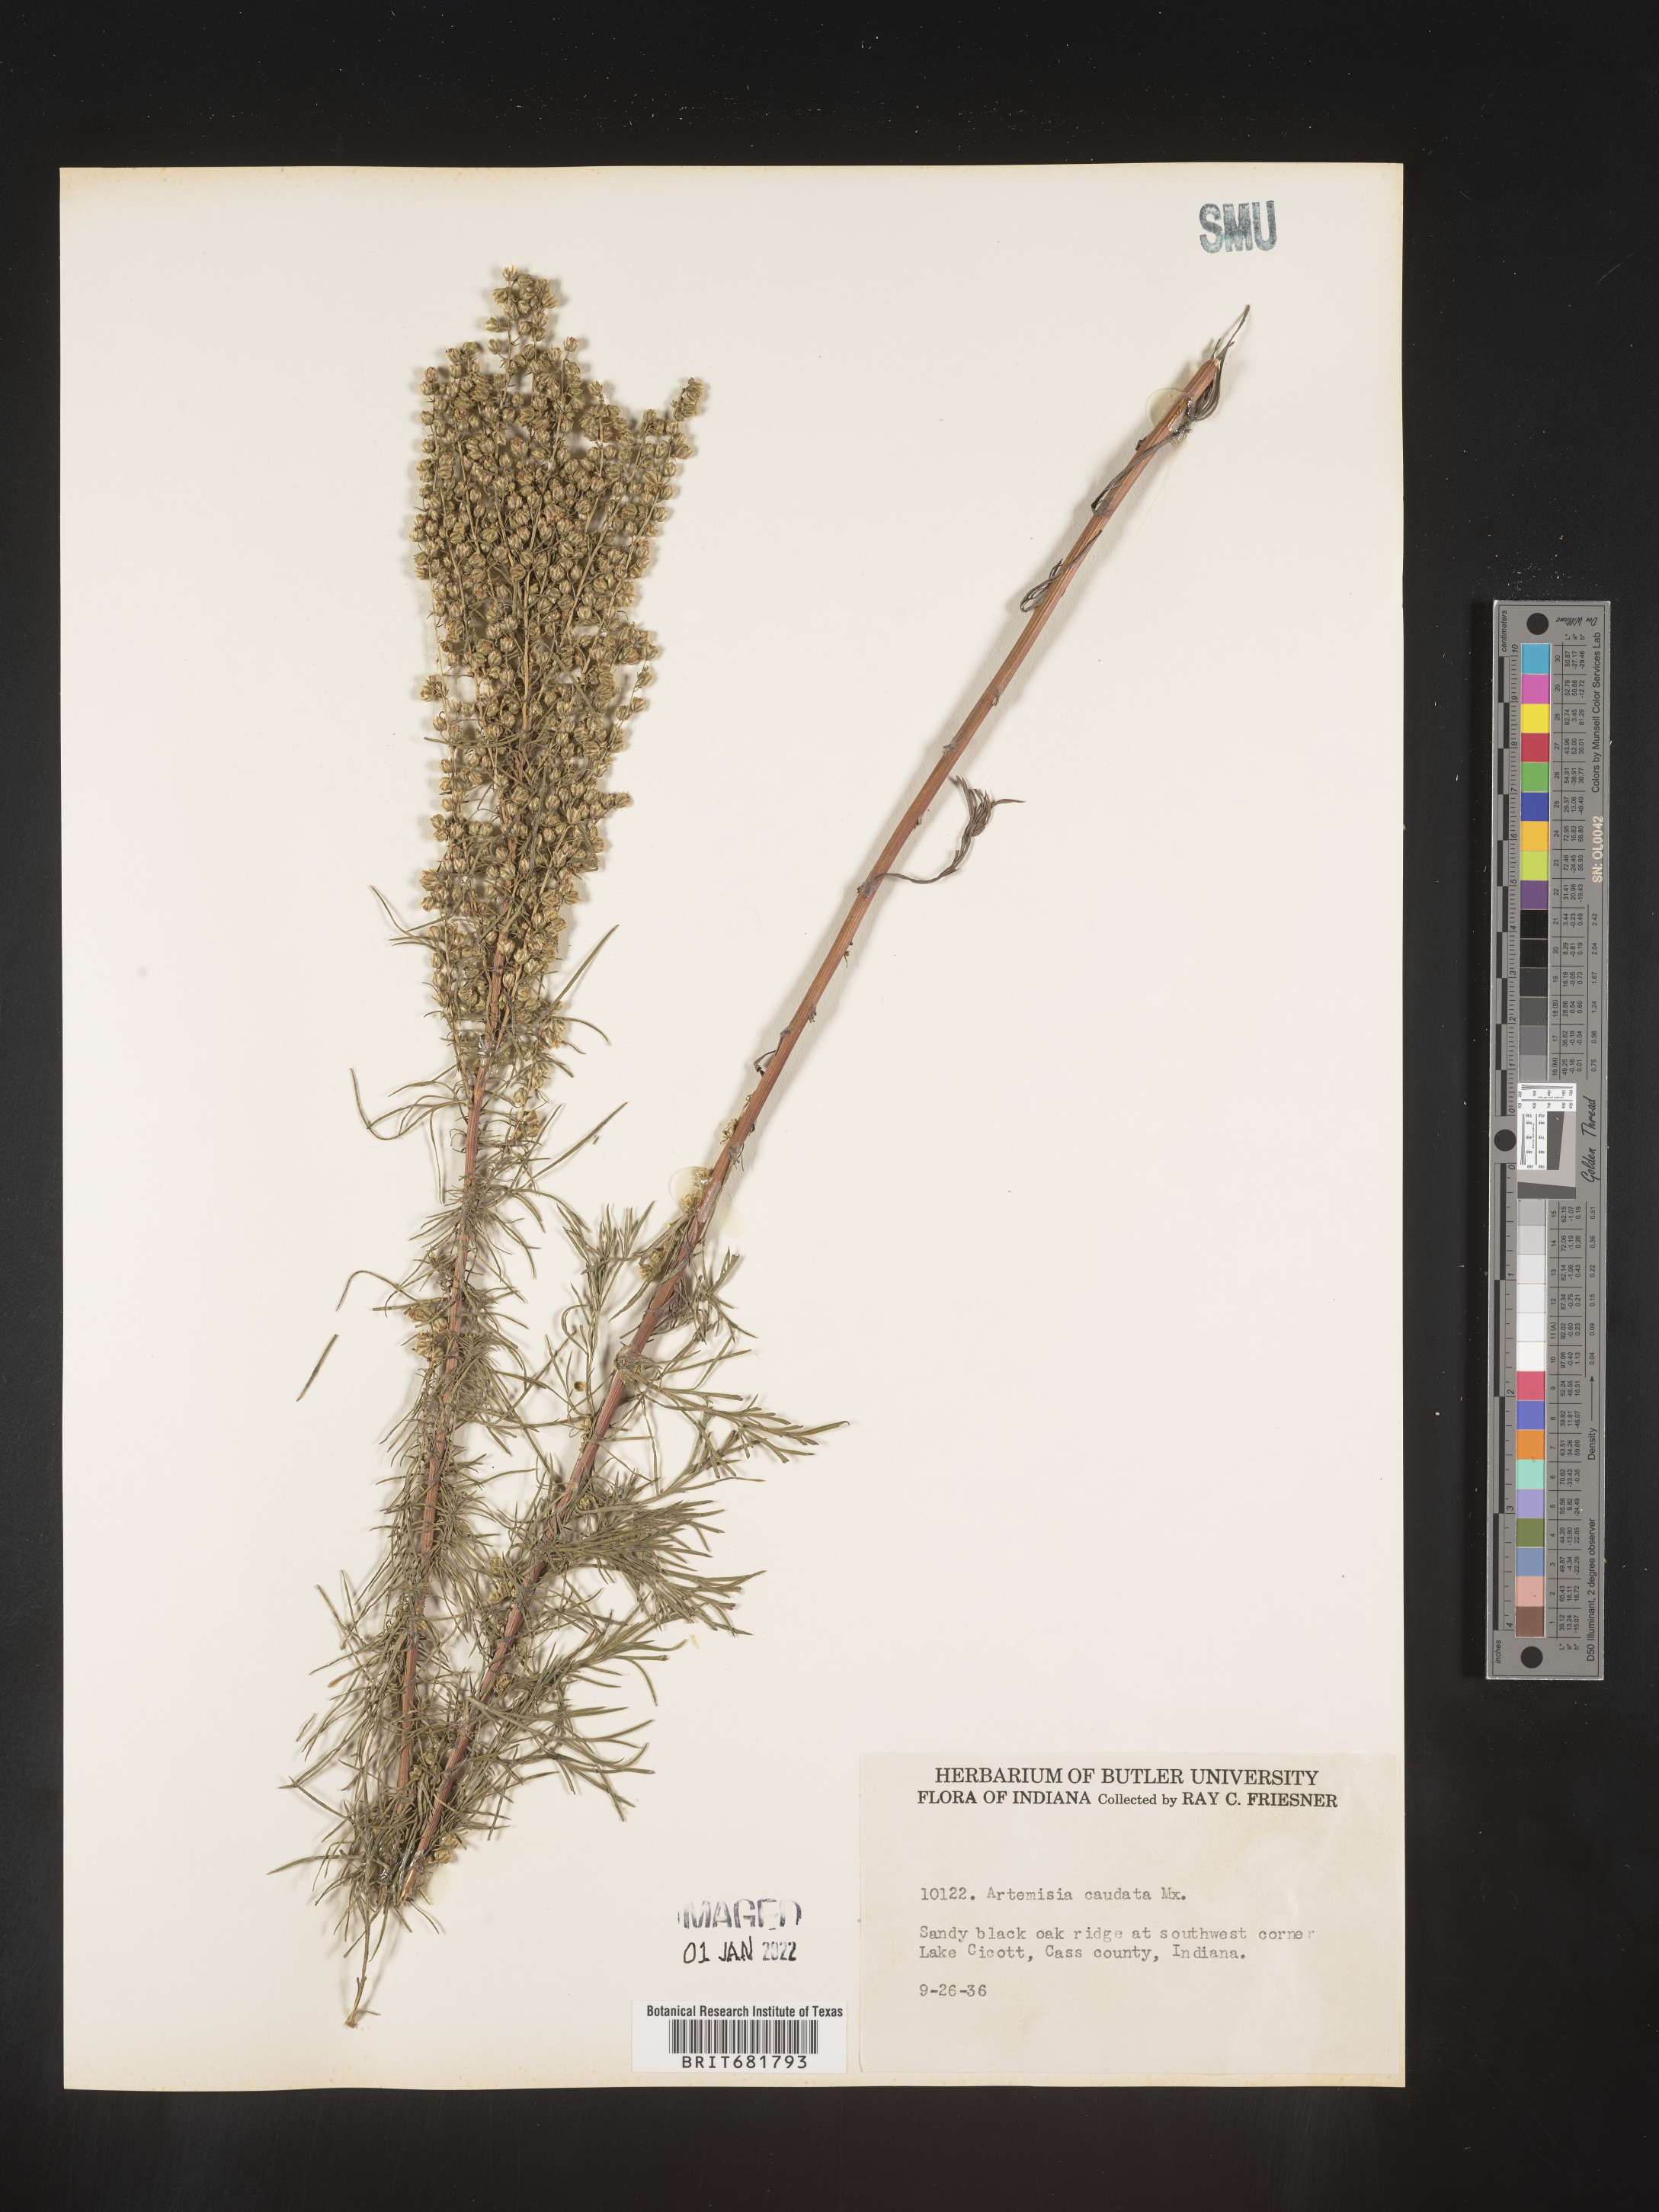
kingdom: Plantae
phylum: Tracheophyta
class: Magnoliopsida
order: Asterales
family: Asteraceae
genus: Artemisia
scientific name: Artemisia campestris
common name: Field wormwood
